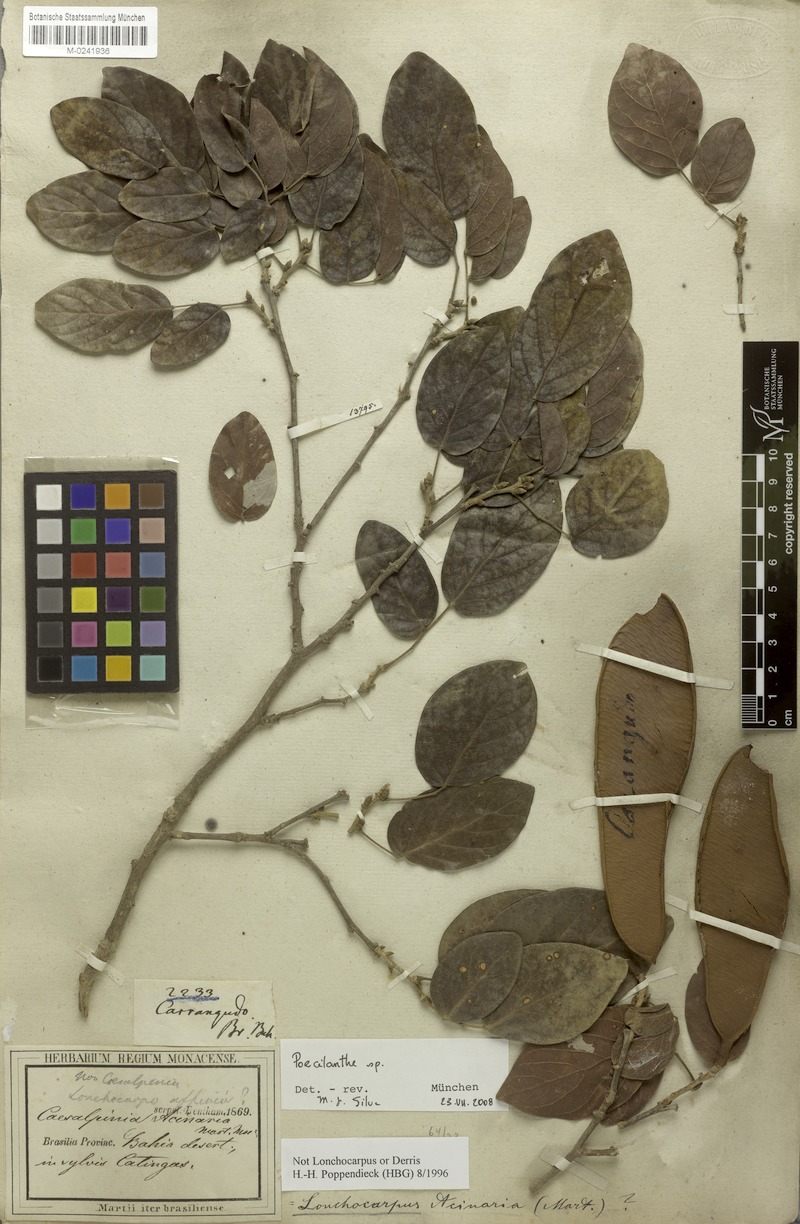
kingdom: Plantae
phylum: Tracheophyta
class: Magnoliopsida
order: Fabales
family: Fabaceae
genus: Poecilanthe
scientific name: Poecilanthe
